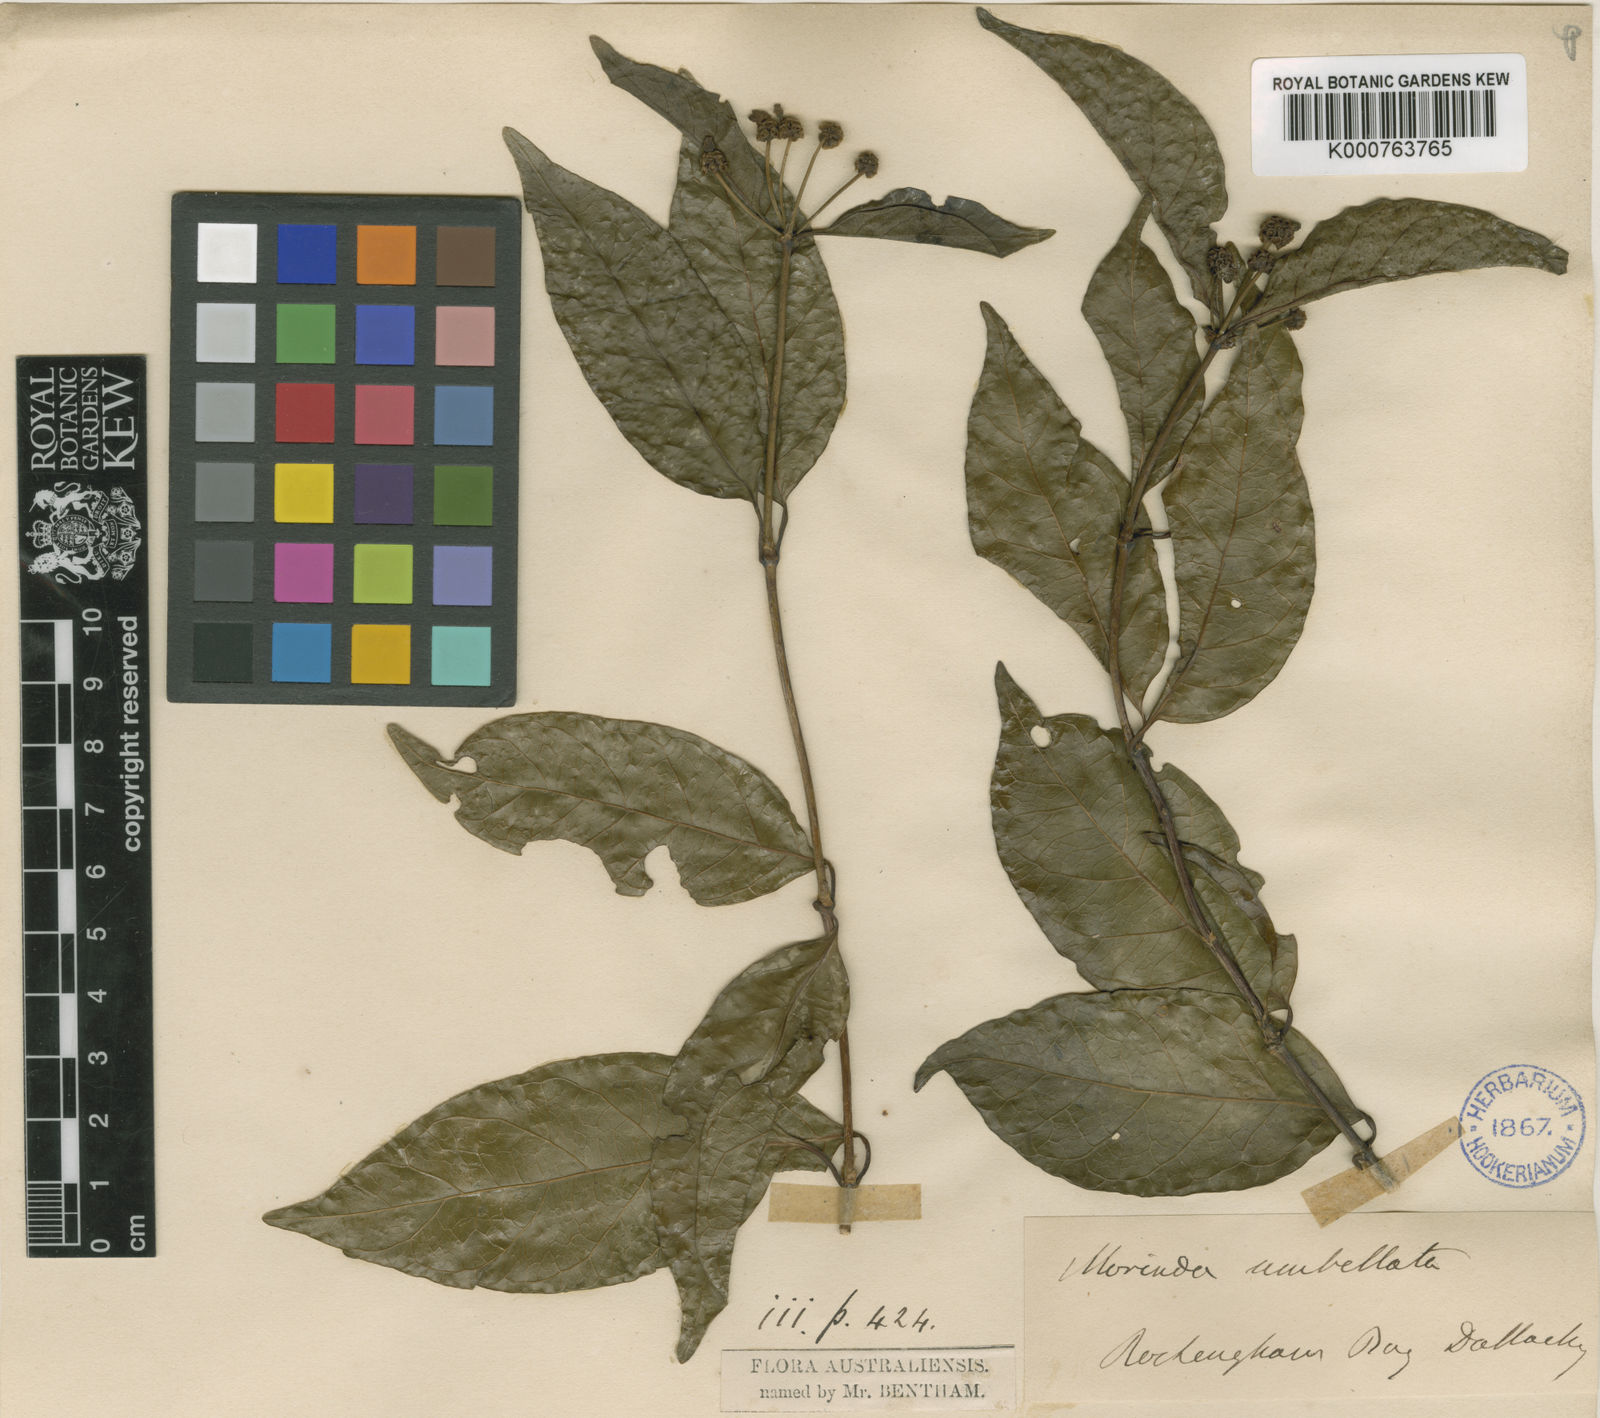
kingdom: Plantae
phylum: Tracheophyta
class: Magnoliopsida
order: Gentianales
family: Rubiaceae
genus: Gynochthodes
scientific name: Gynochthodes umbellata
